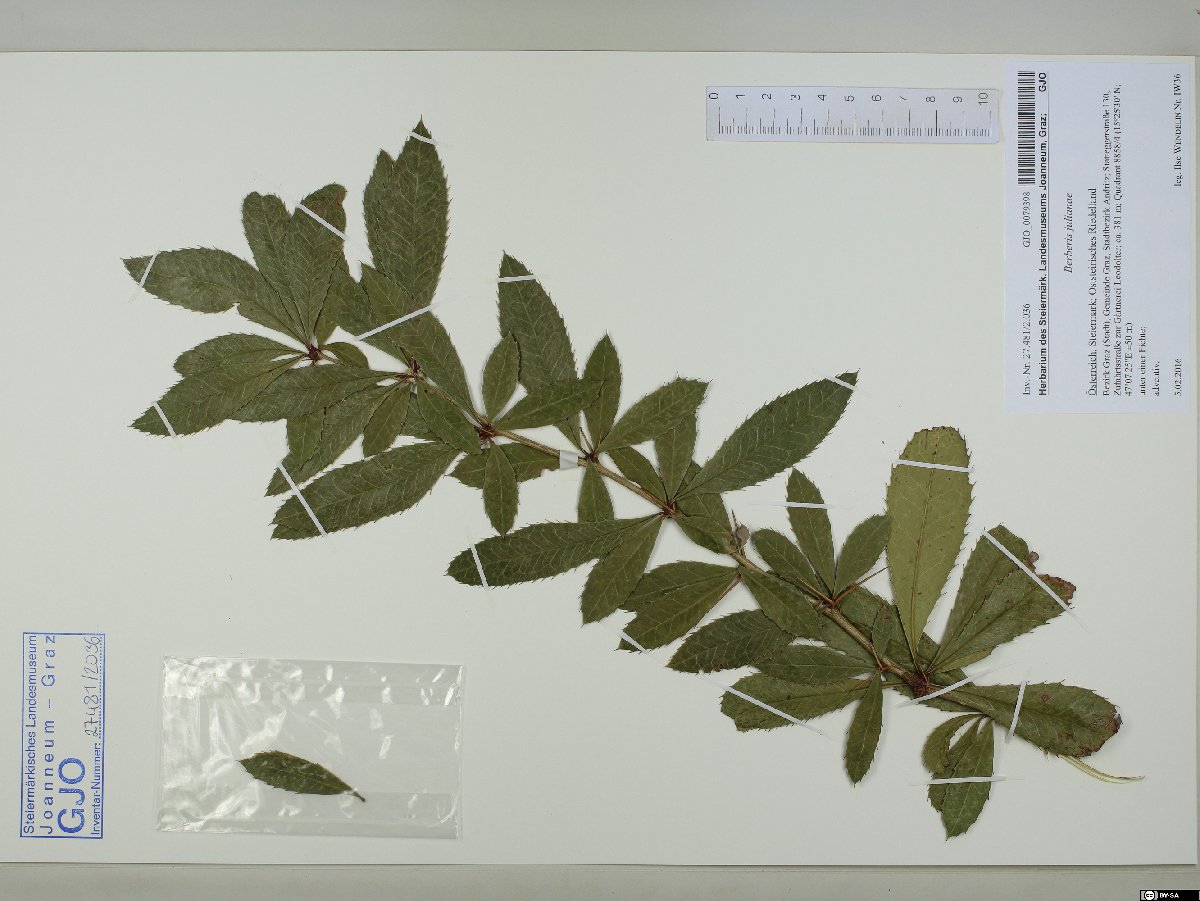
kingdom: Plantae
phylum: Tracheophyta
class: Magnoliopsida
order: Ranunculales
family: Berberidaceae
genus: Berberis
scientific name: Berberis julianae
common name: Wintergreen barberry
